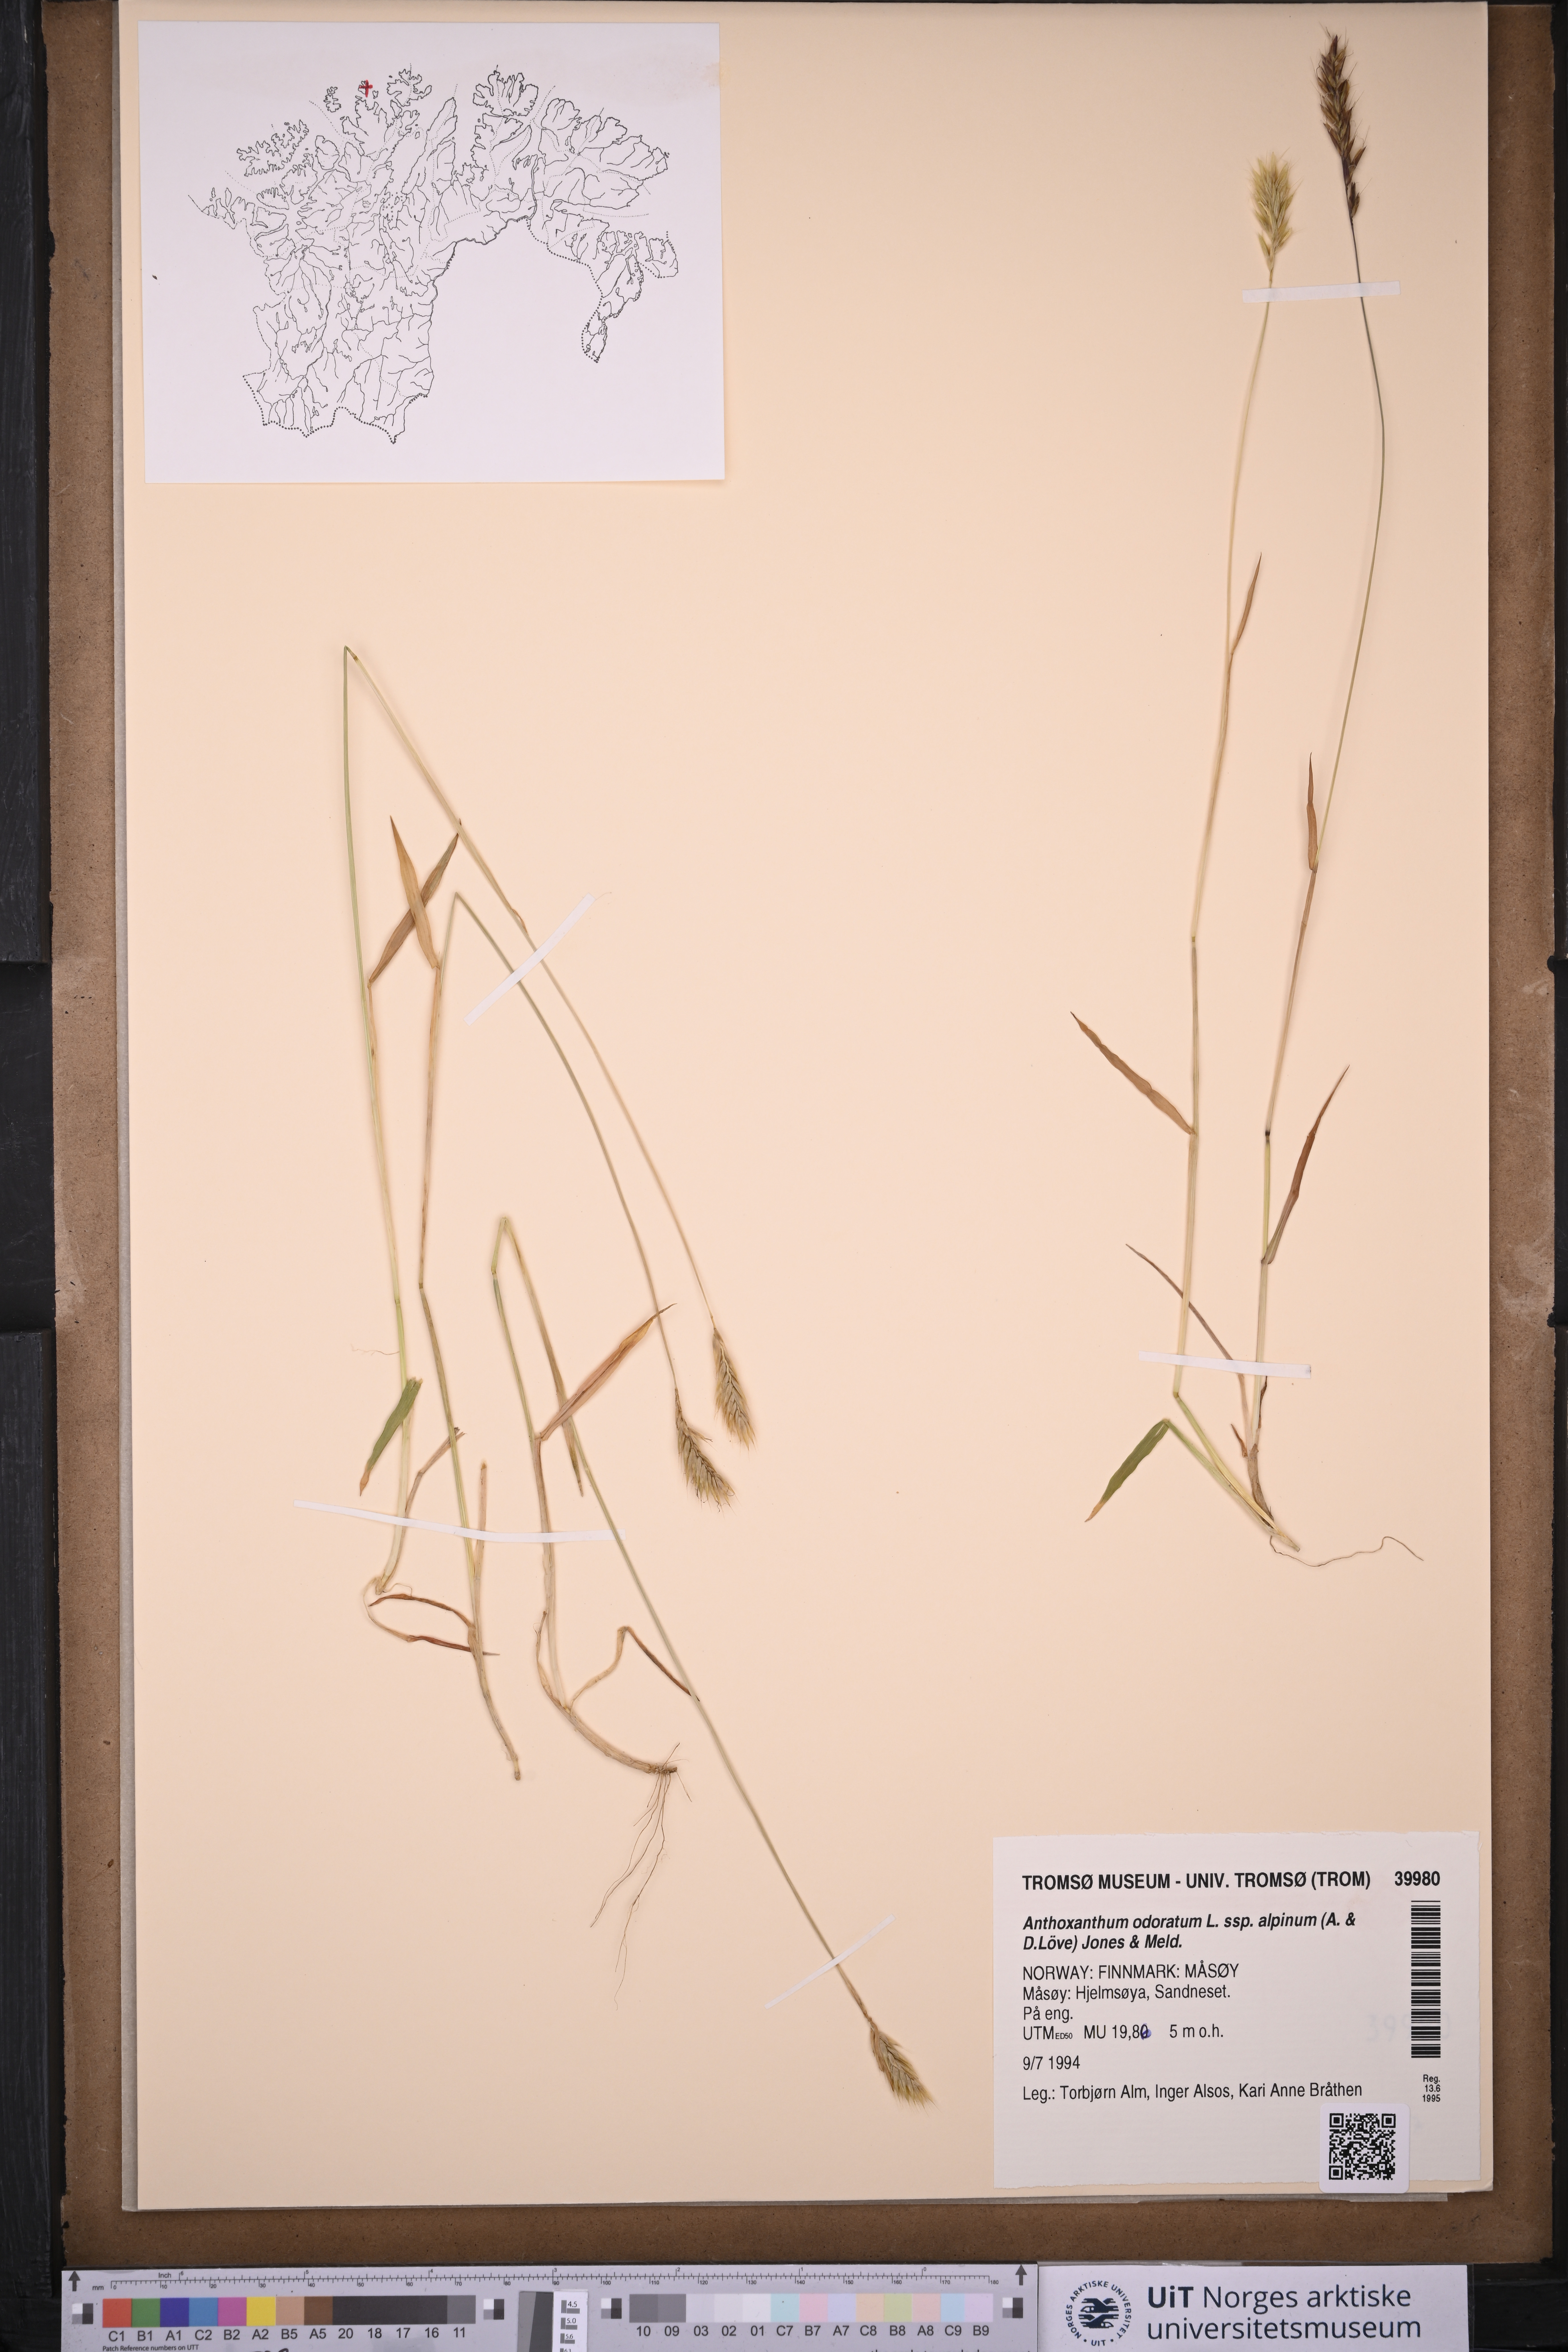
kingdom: Plantae
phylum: Tracheophyta
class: Liliopsida
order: Poales
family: Poaceae
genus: Anthoxanthum
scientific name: Anthoxanthum nipponicum
